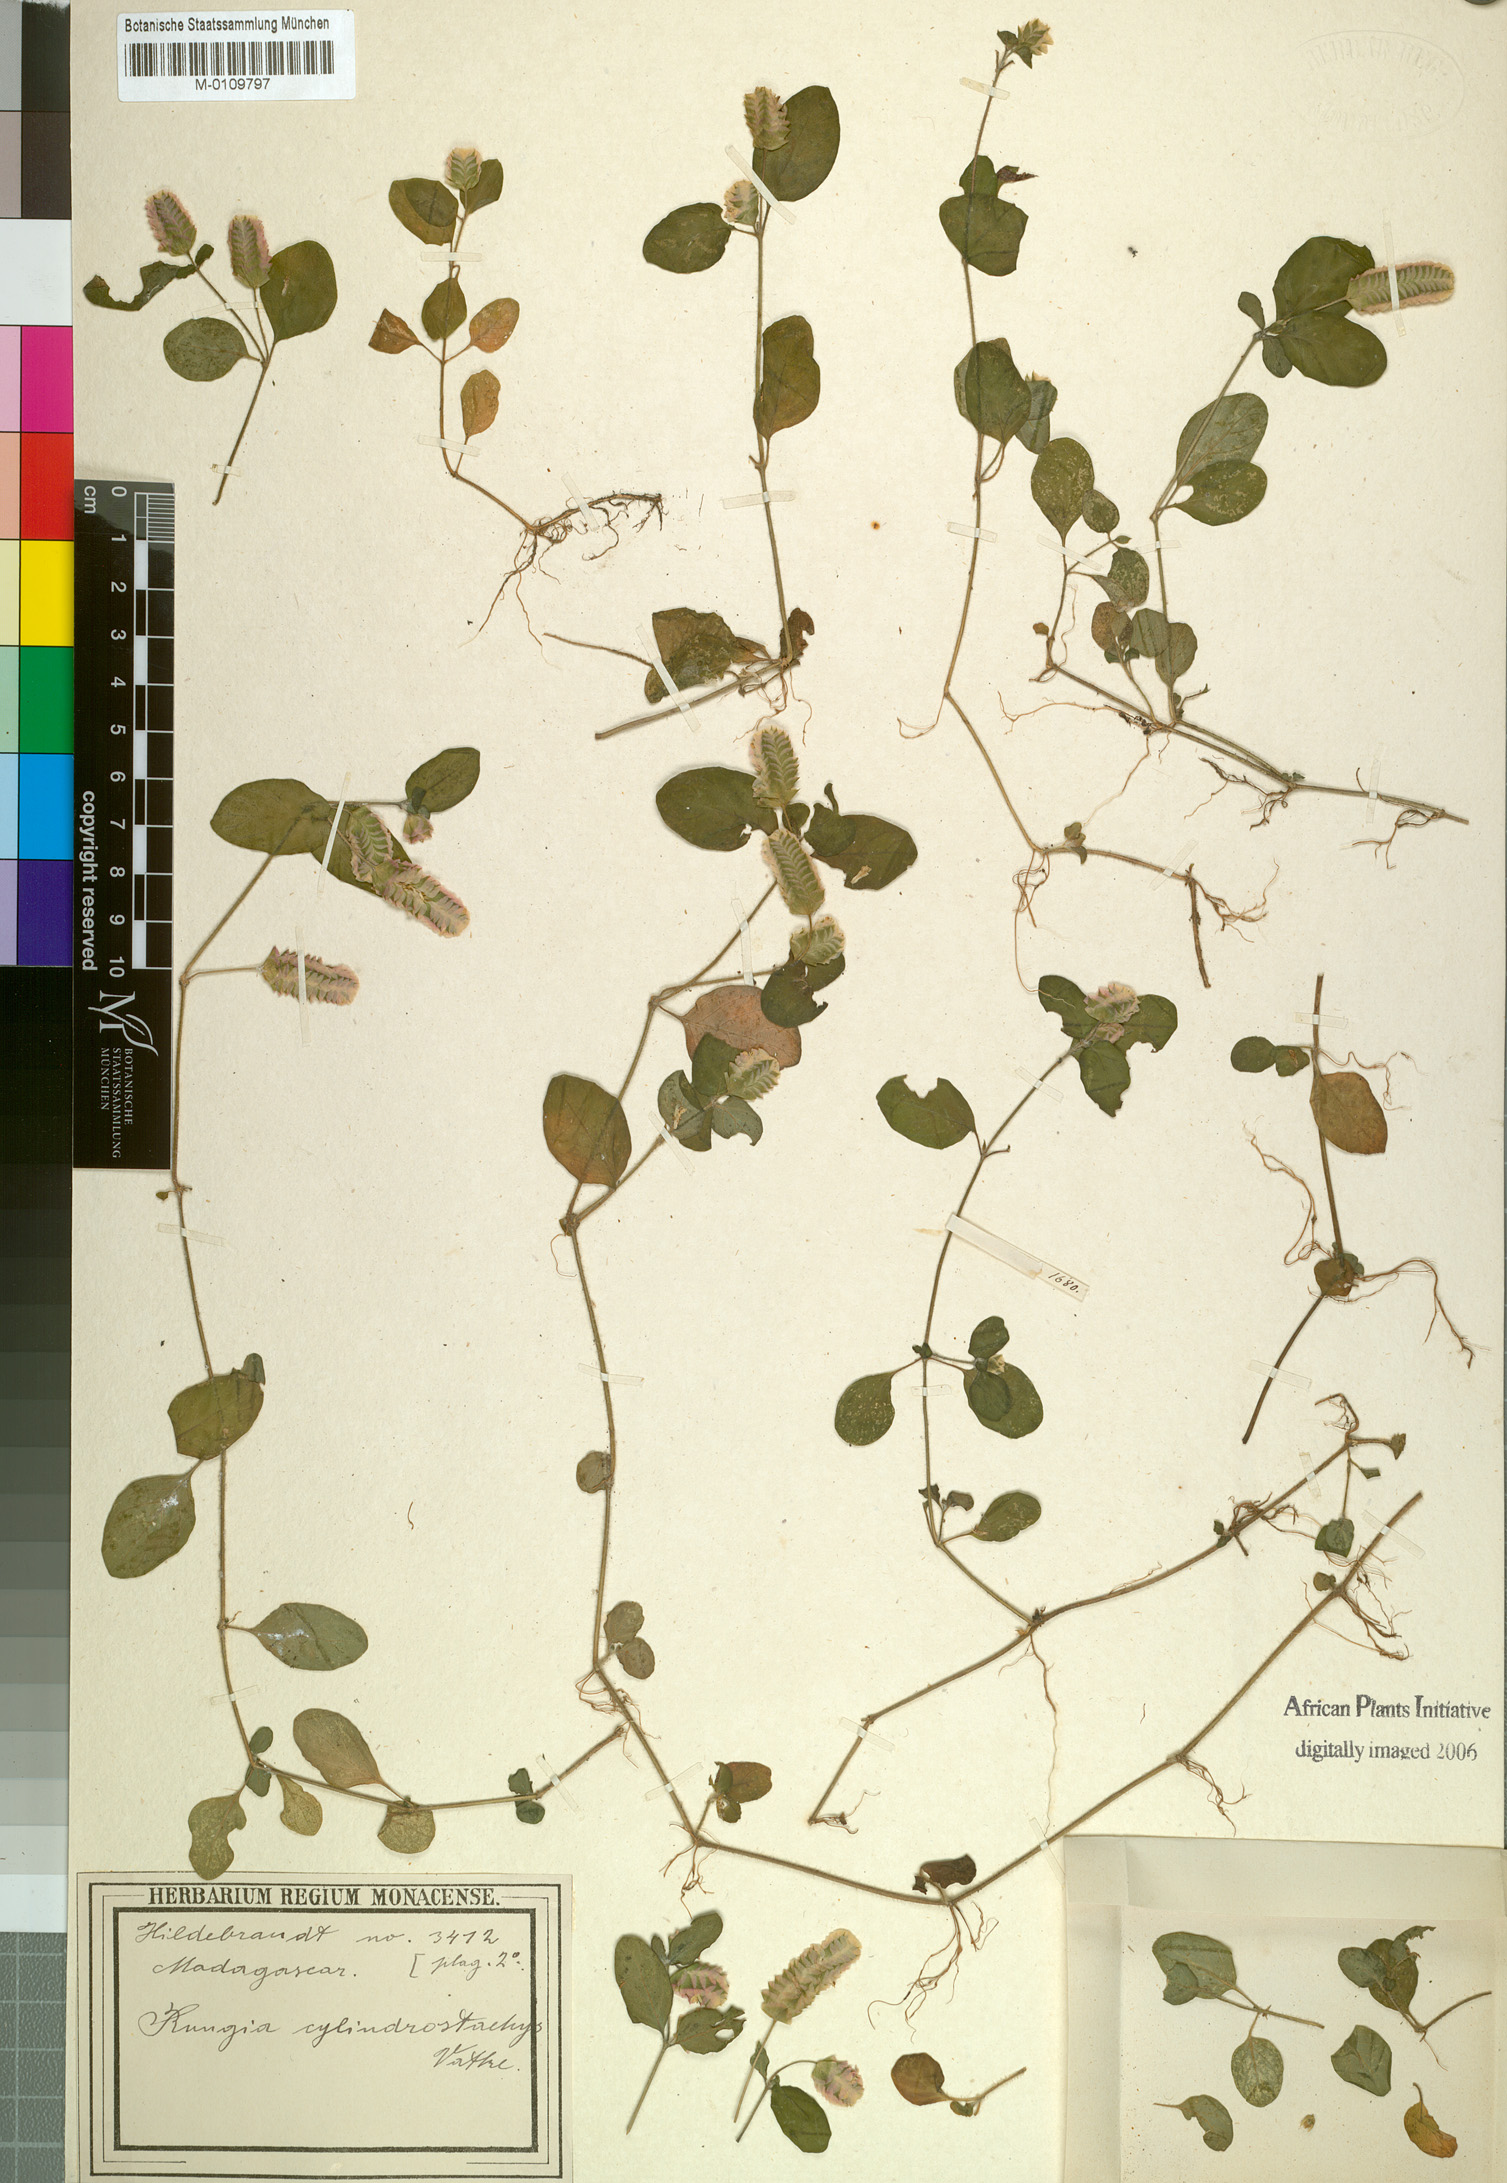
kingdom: Plantae
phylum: Tracheophyta
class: Magnoliopsida
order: Lamiales
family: Acanthaceae
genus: Anisostachya
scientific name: Anisostachya reptans
